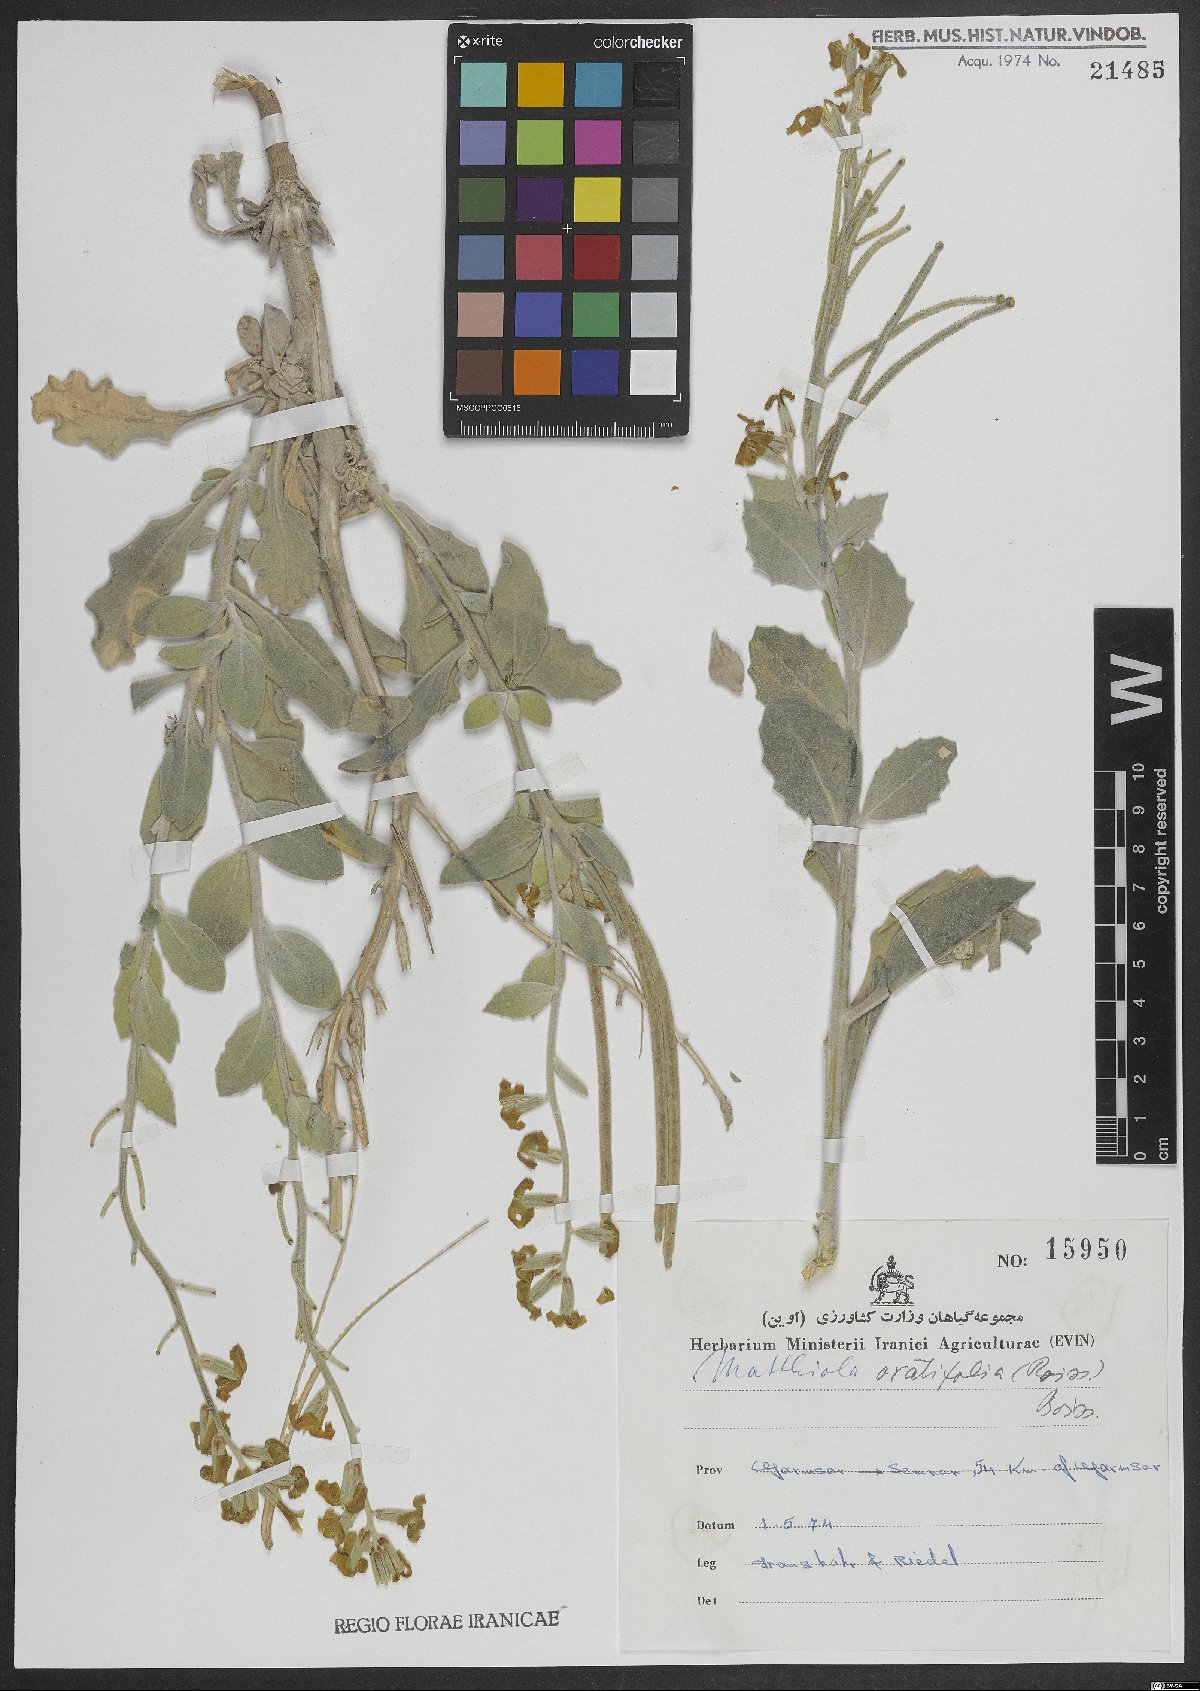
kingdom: Plantae
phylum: Tracheophyta
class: Magnoliopsida
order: Brassicales
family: Brassicaceae
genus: Matthiola
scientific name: Matthiola ovatifolia
